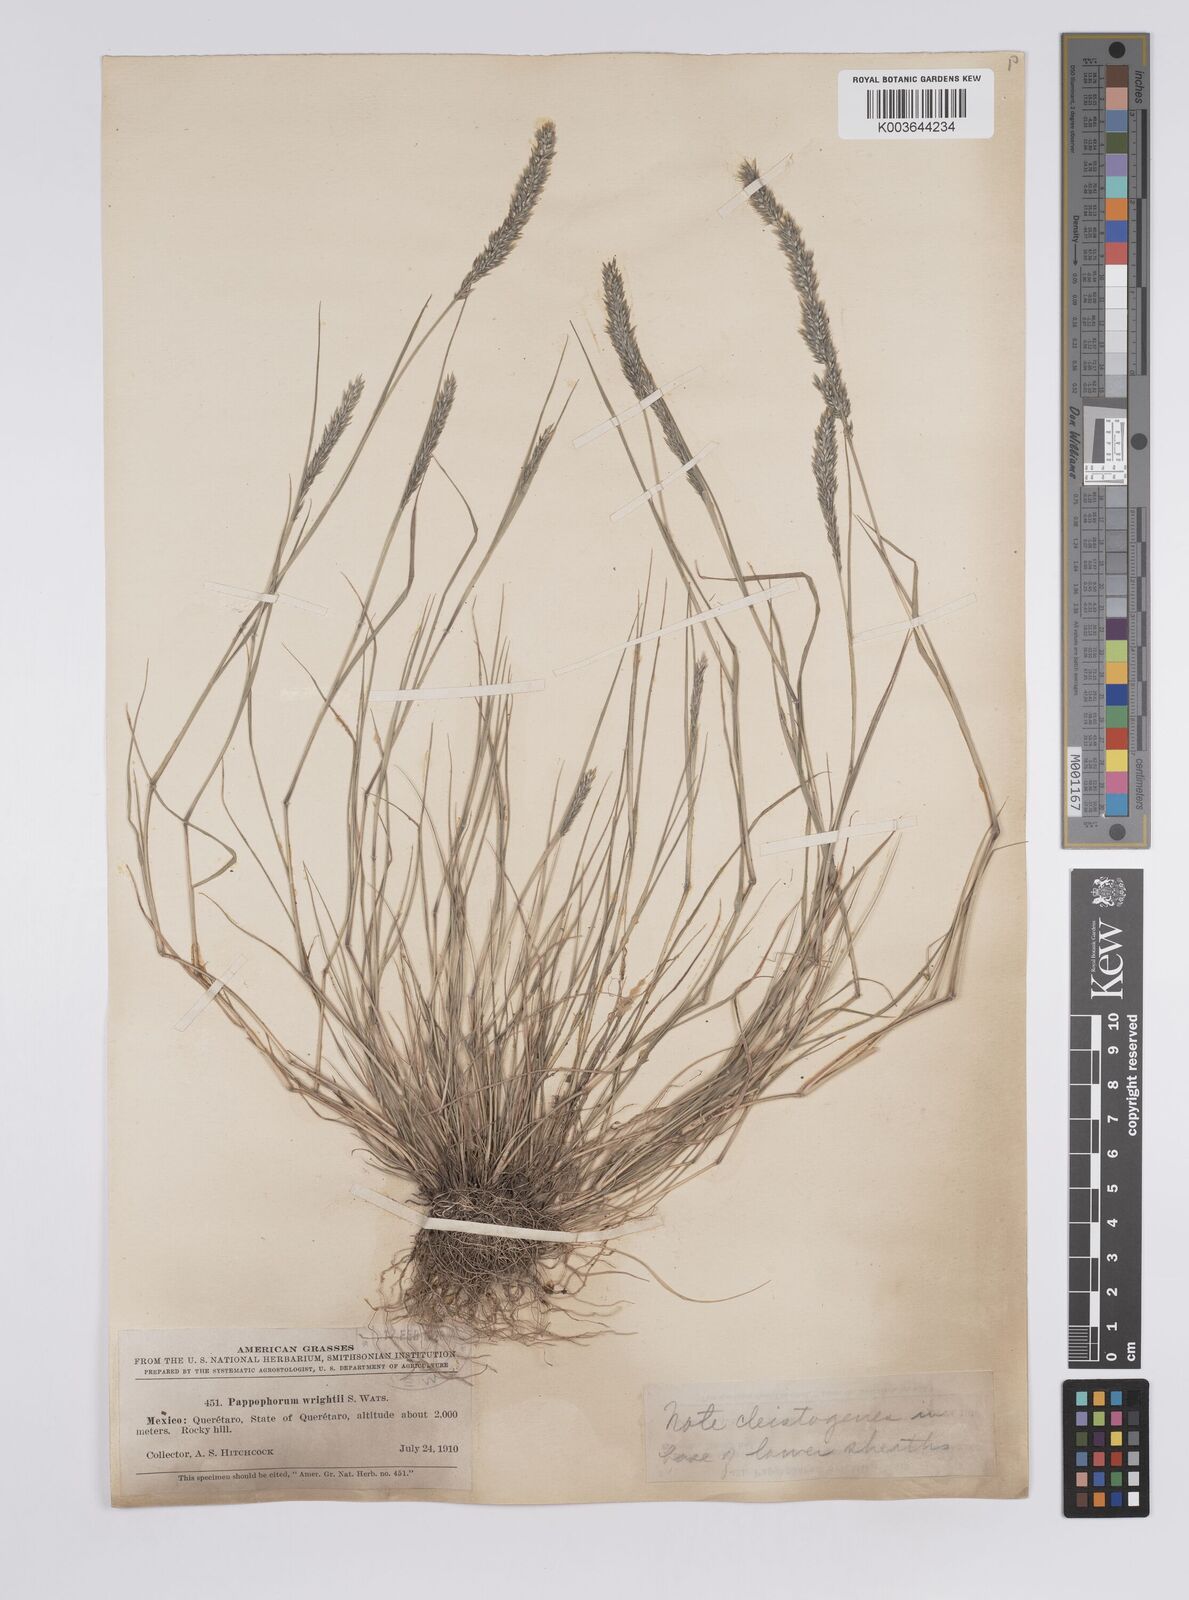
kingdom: Plantae
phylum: Tracheophyta
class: Liliopsida
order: Poales
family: Poaceae
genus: Enneapogon
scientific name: Enneapogon desvauxii
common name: Feather pappus grass
